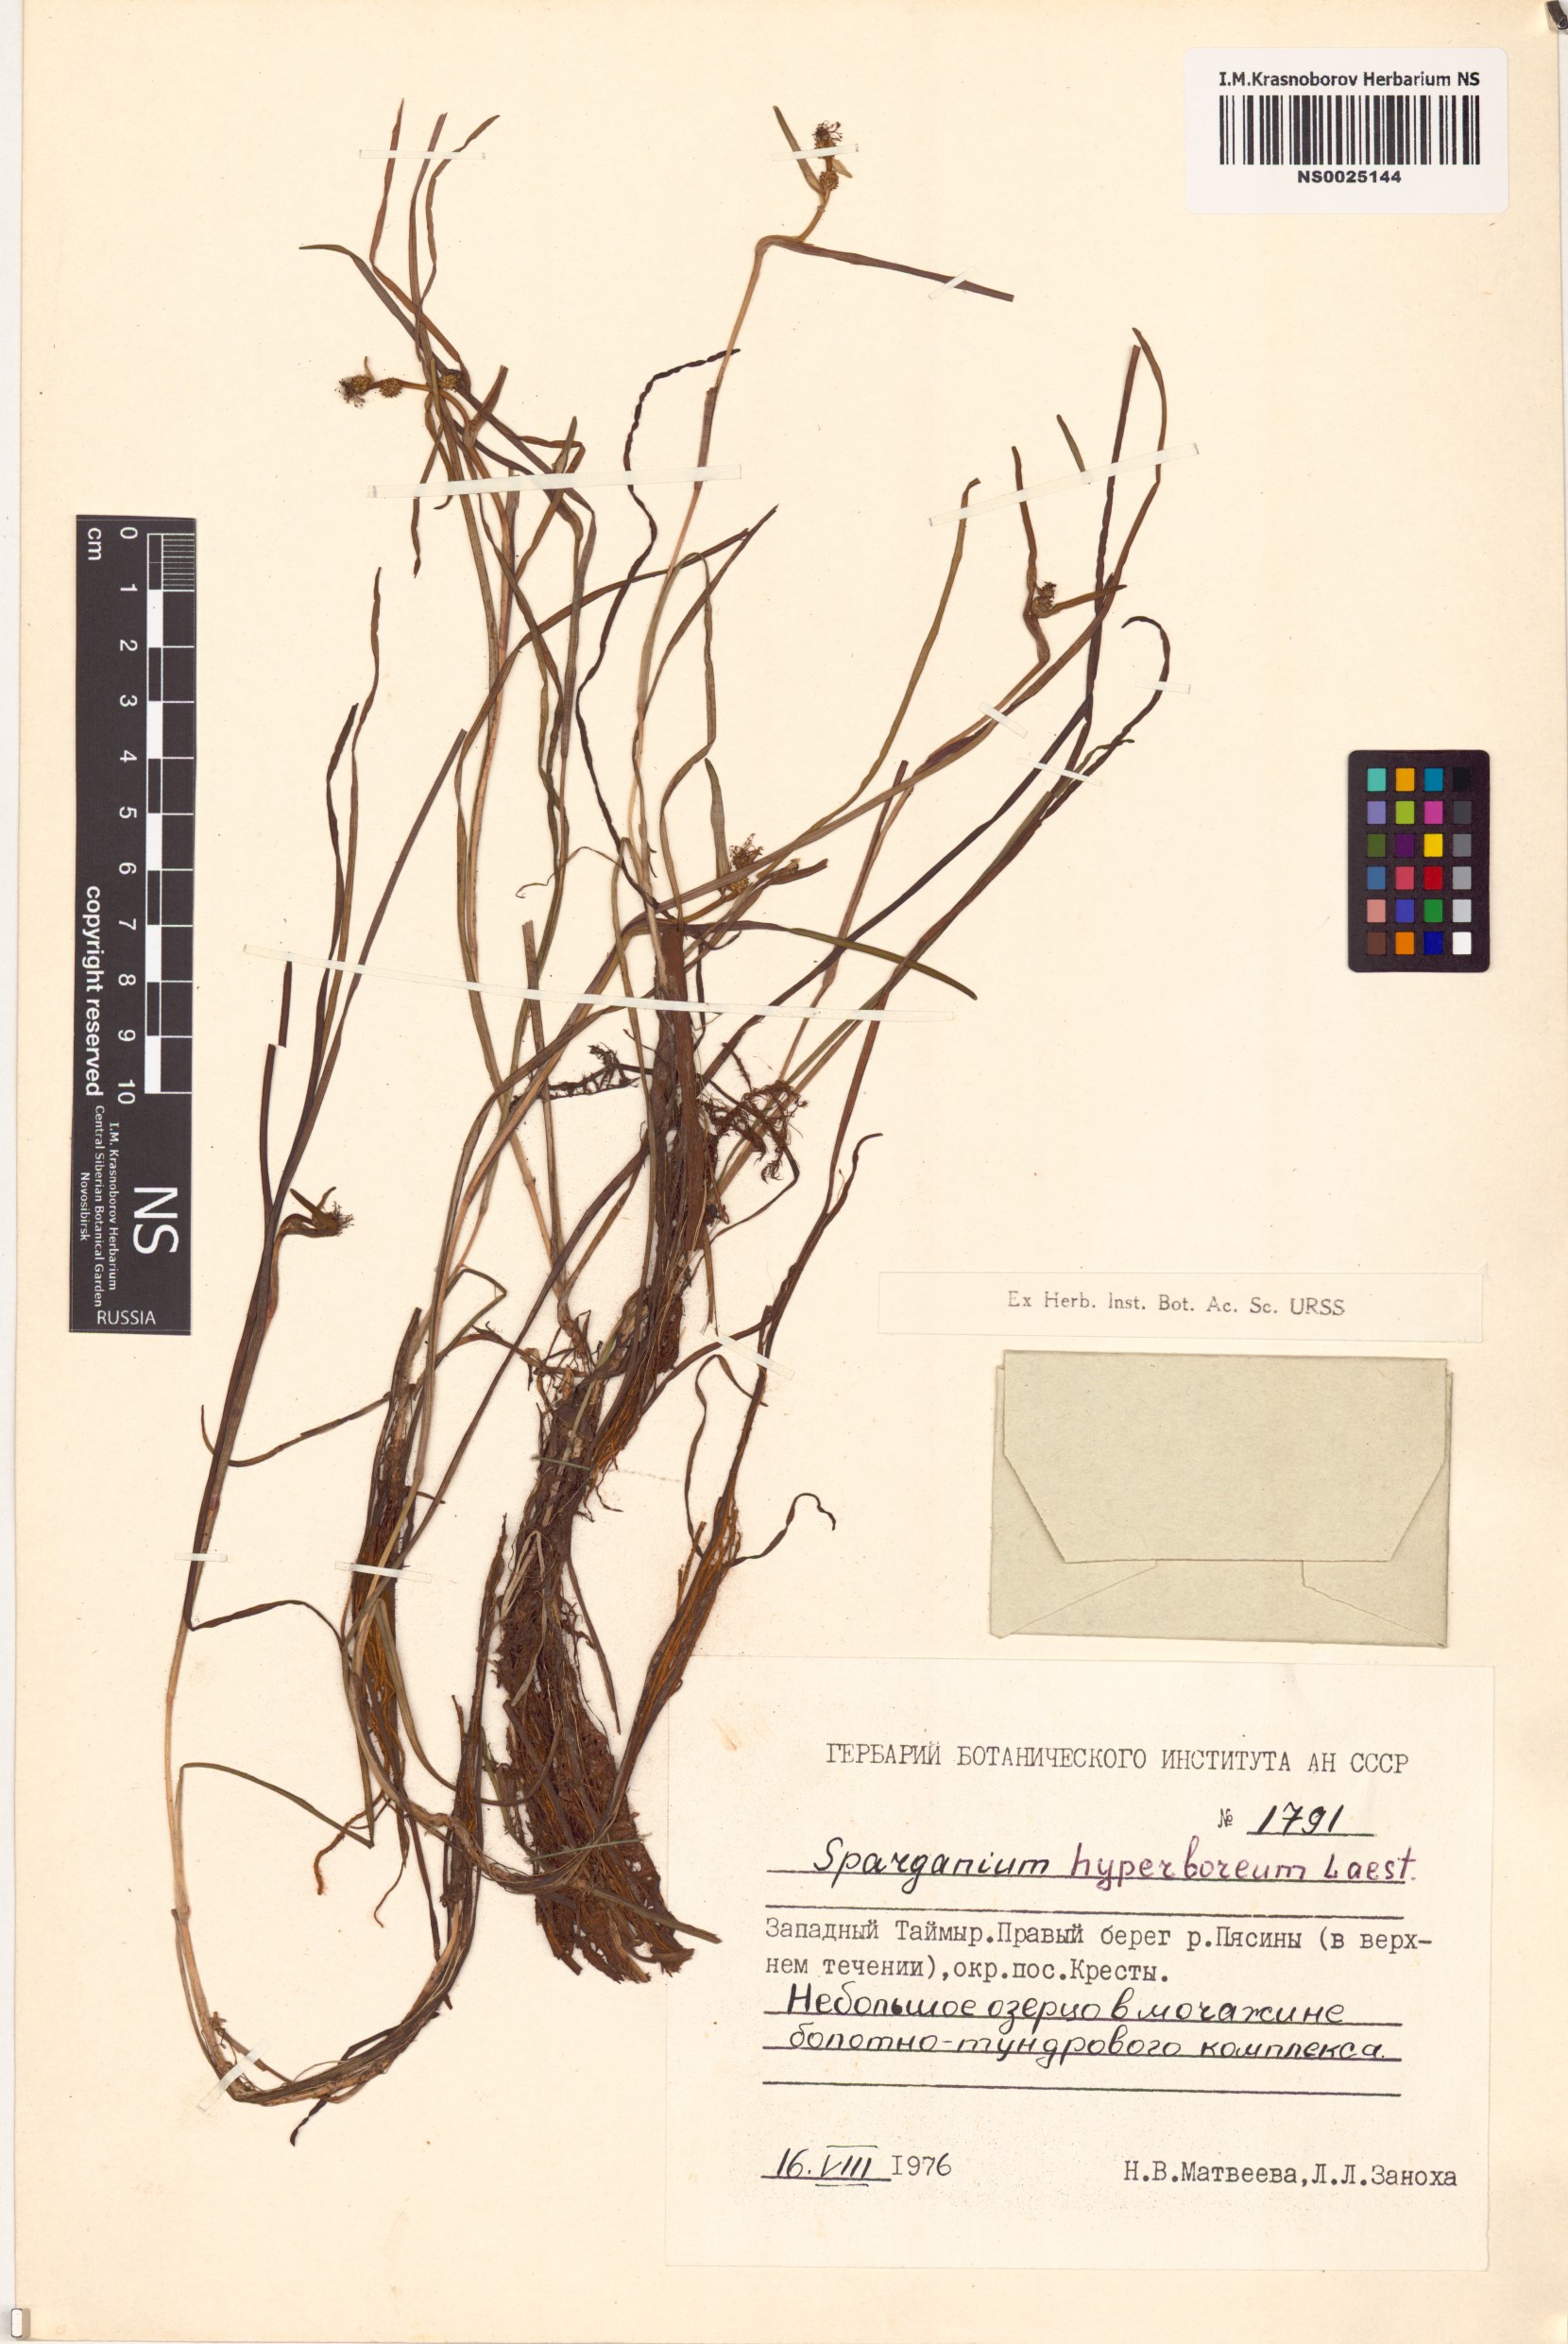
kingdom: Plantae
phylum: Tracheophyta
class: Liliopsida
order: Poales
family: Typhaceae
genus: Sparganium
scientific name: Sparganium hyperboreum
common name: Arctic burreed
